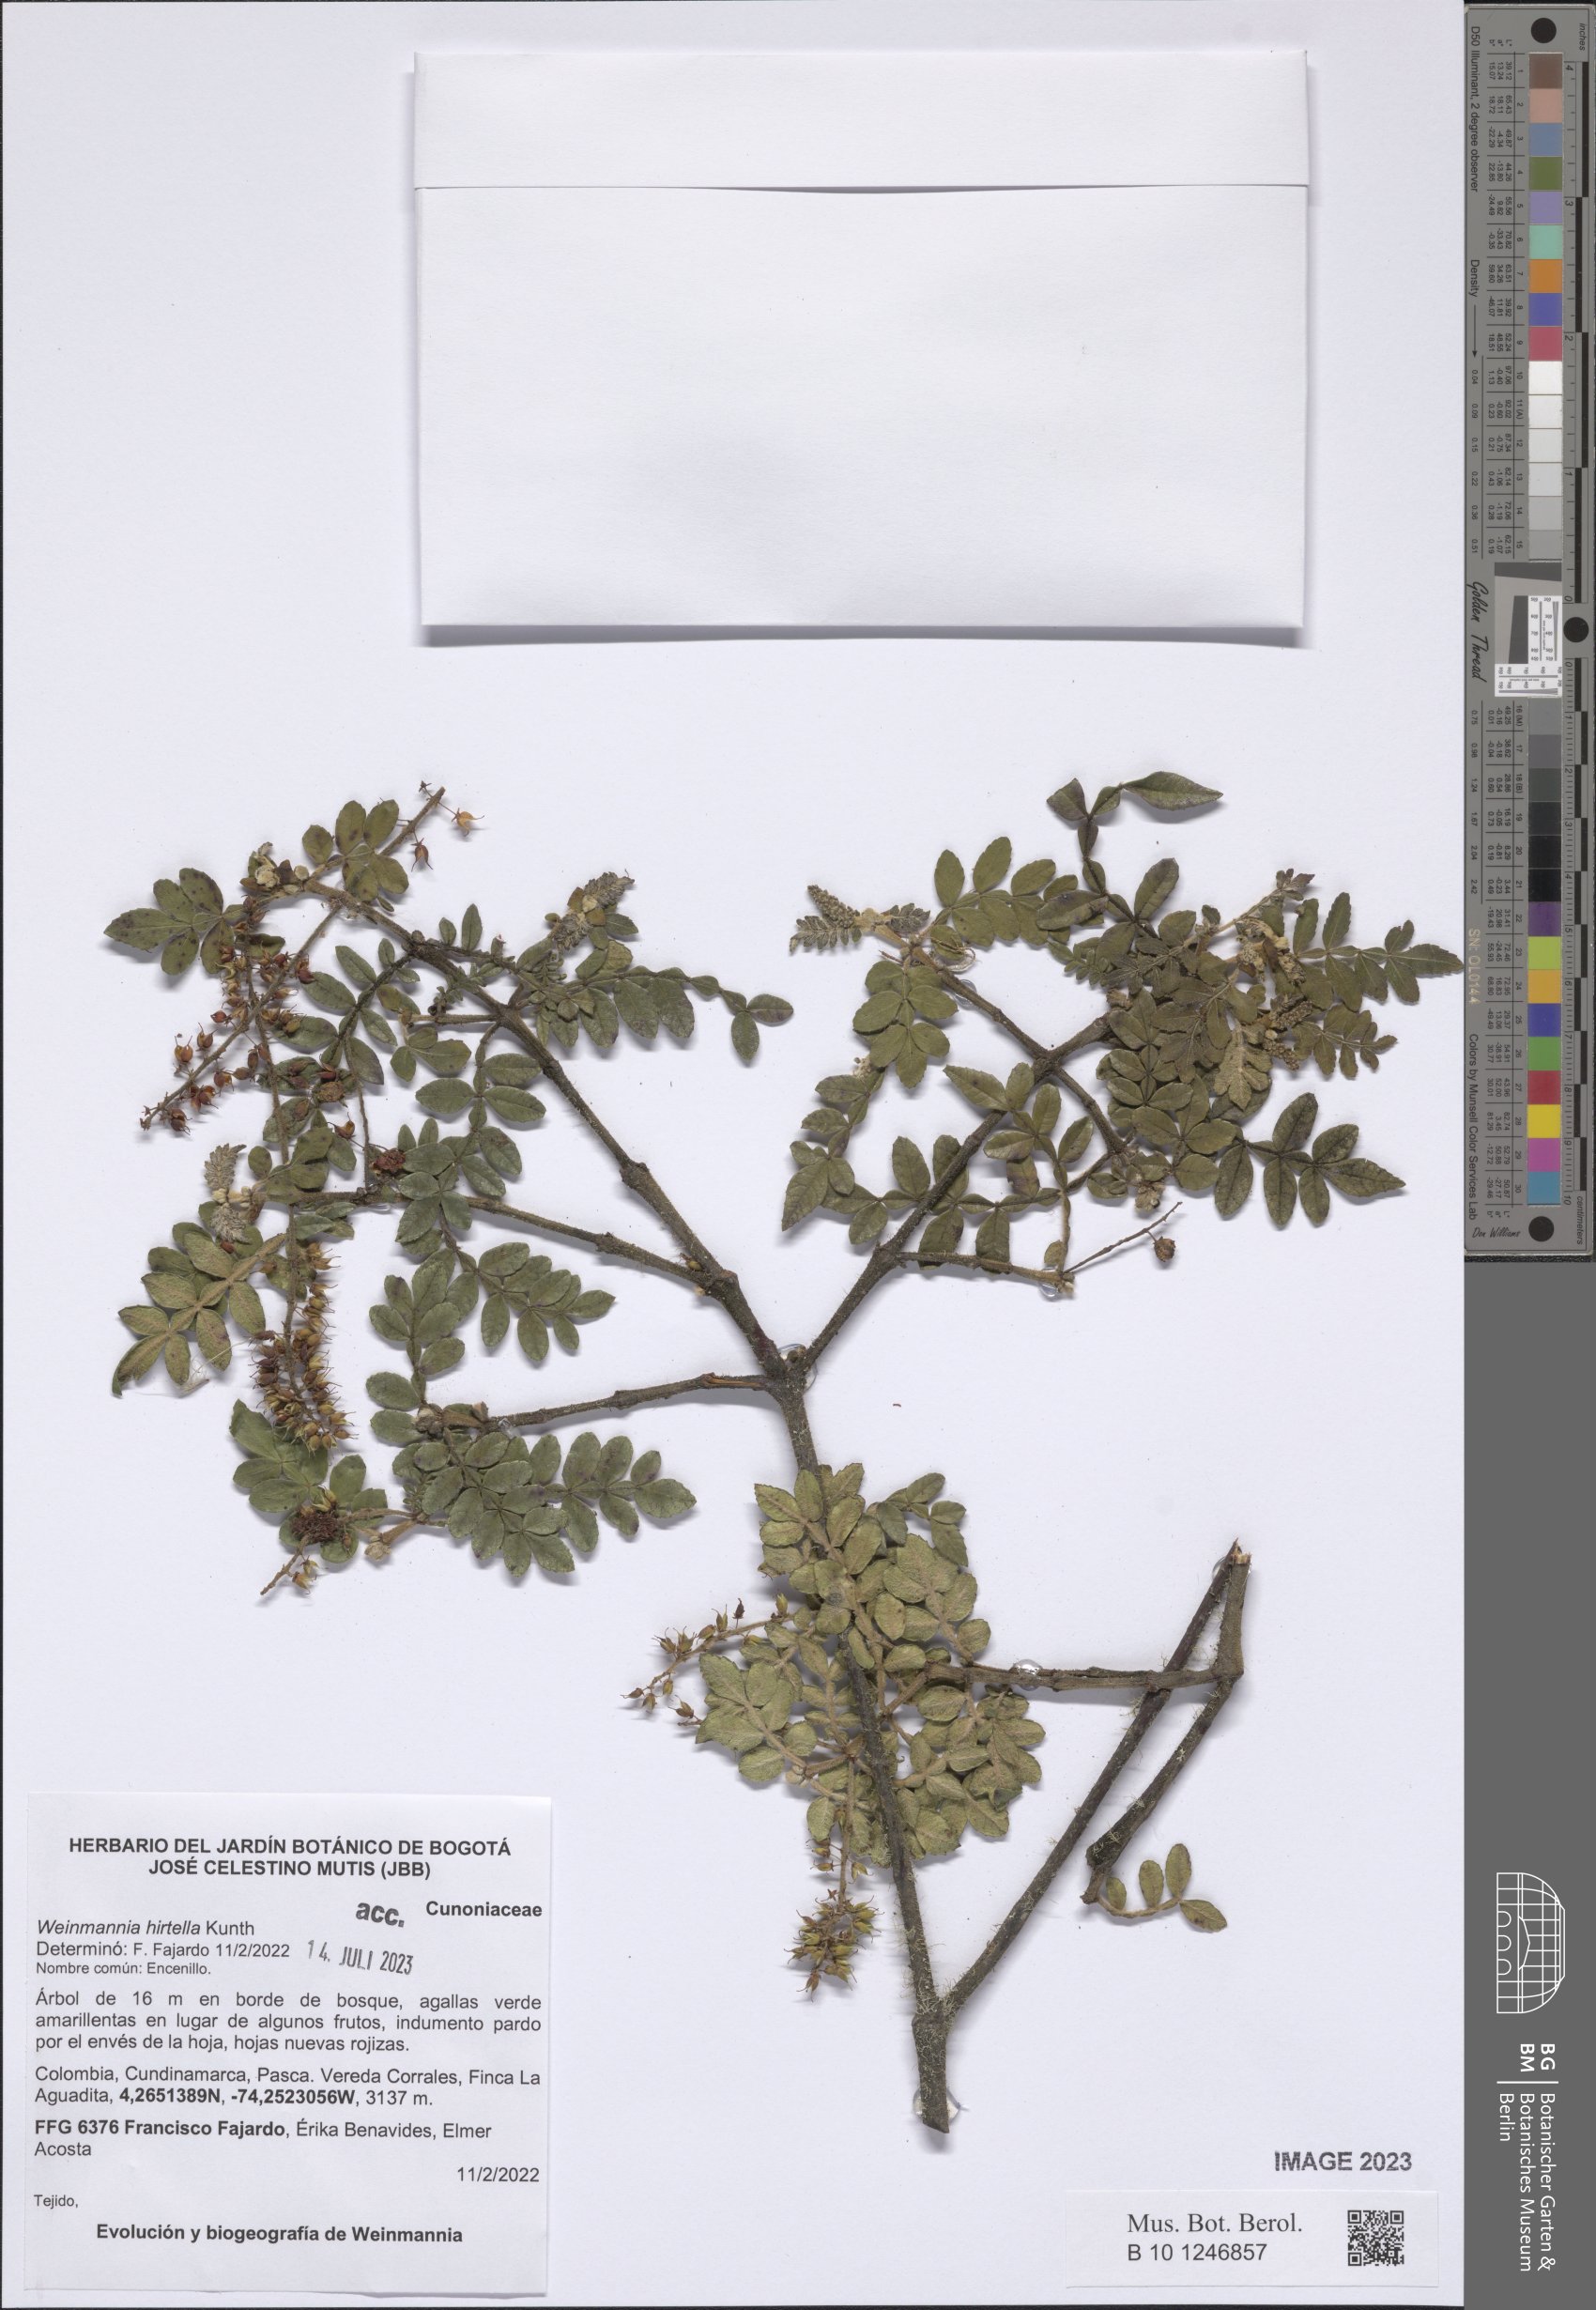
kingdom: Plantae
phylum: Tracheophyta
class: Magnoliopsida
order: Oxalidales
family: Cunoniaceae
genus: Weinmannia
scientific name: Weinmannia pinnata
